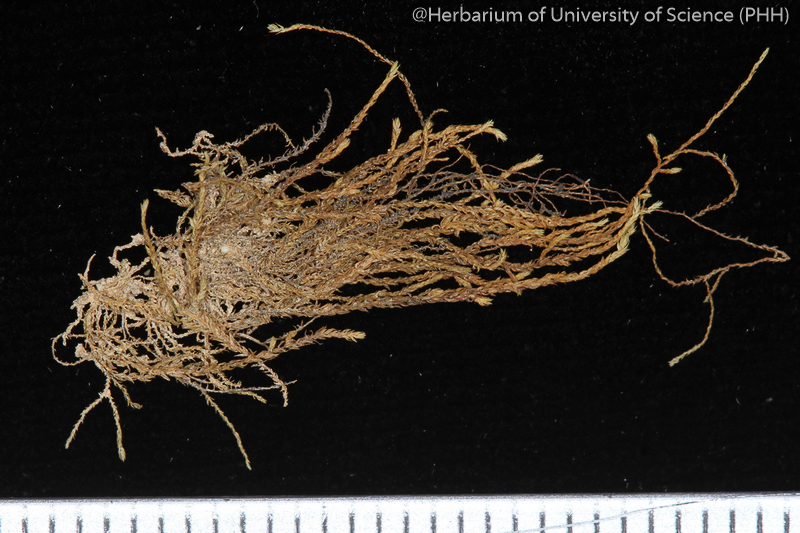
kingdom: Plantae
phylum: Bryophyta
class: Bryopsida
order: Hypnales
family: Hypnaceae
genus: Vesicularia
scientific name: Vesicularia reticulata
